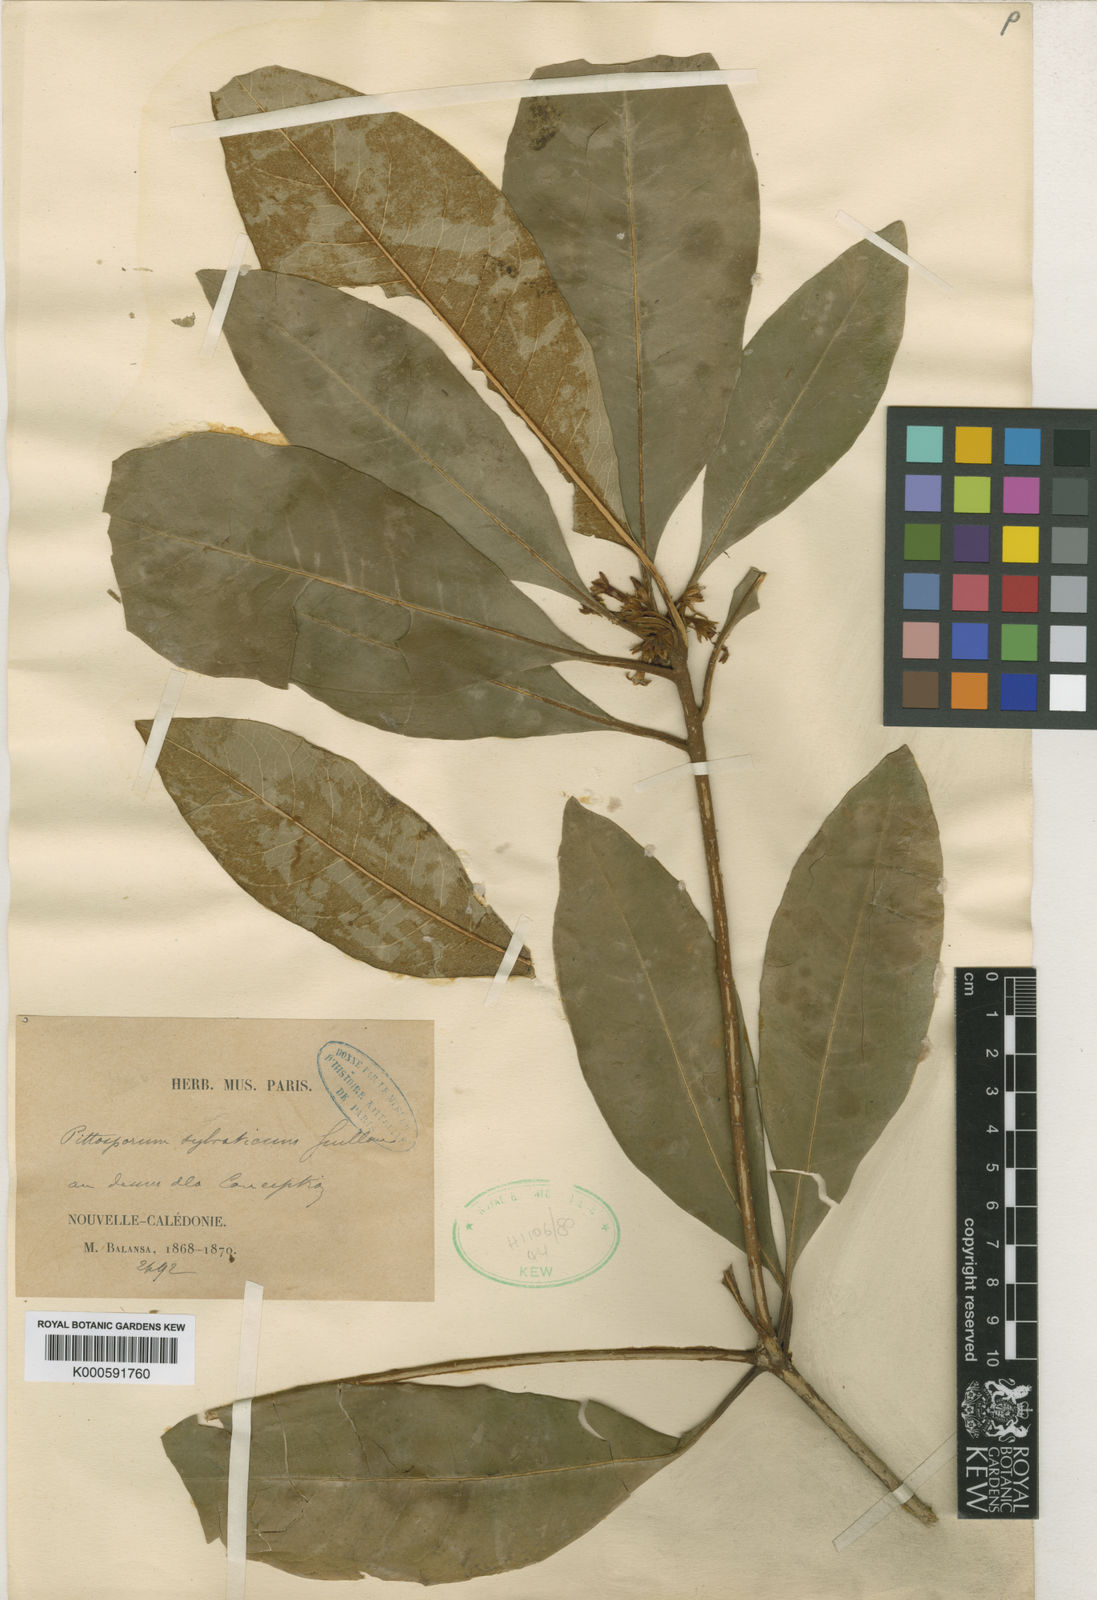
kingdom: Plantae
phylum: Tracheophyta
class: Magnoliopsida
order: Apiales
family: Pittosporaceae
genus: Pittosporum
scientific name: Pittosporum sylvaticum
